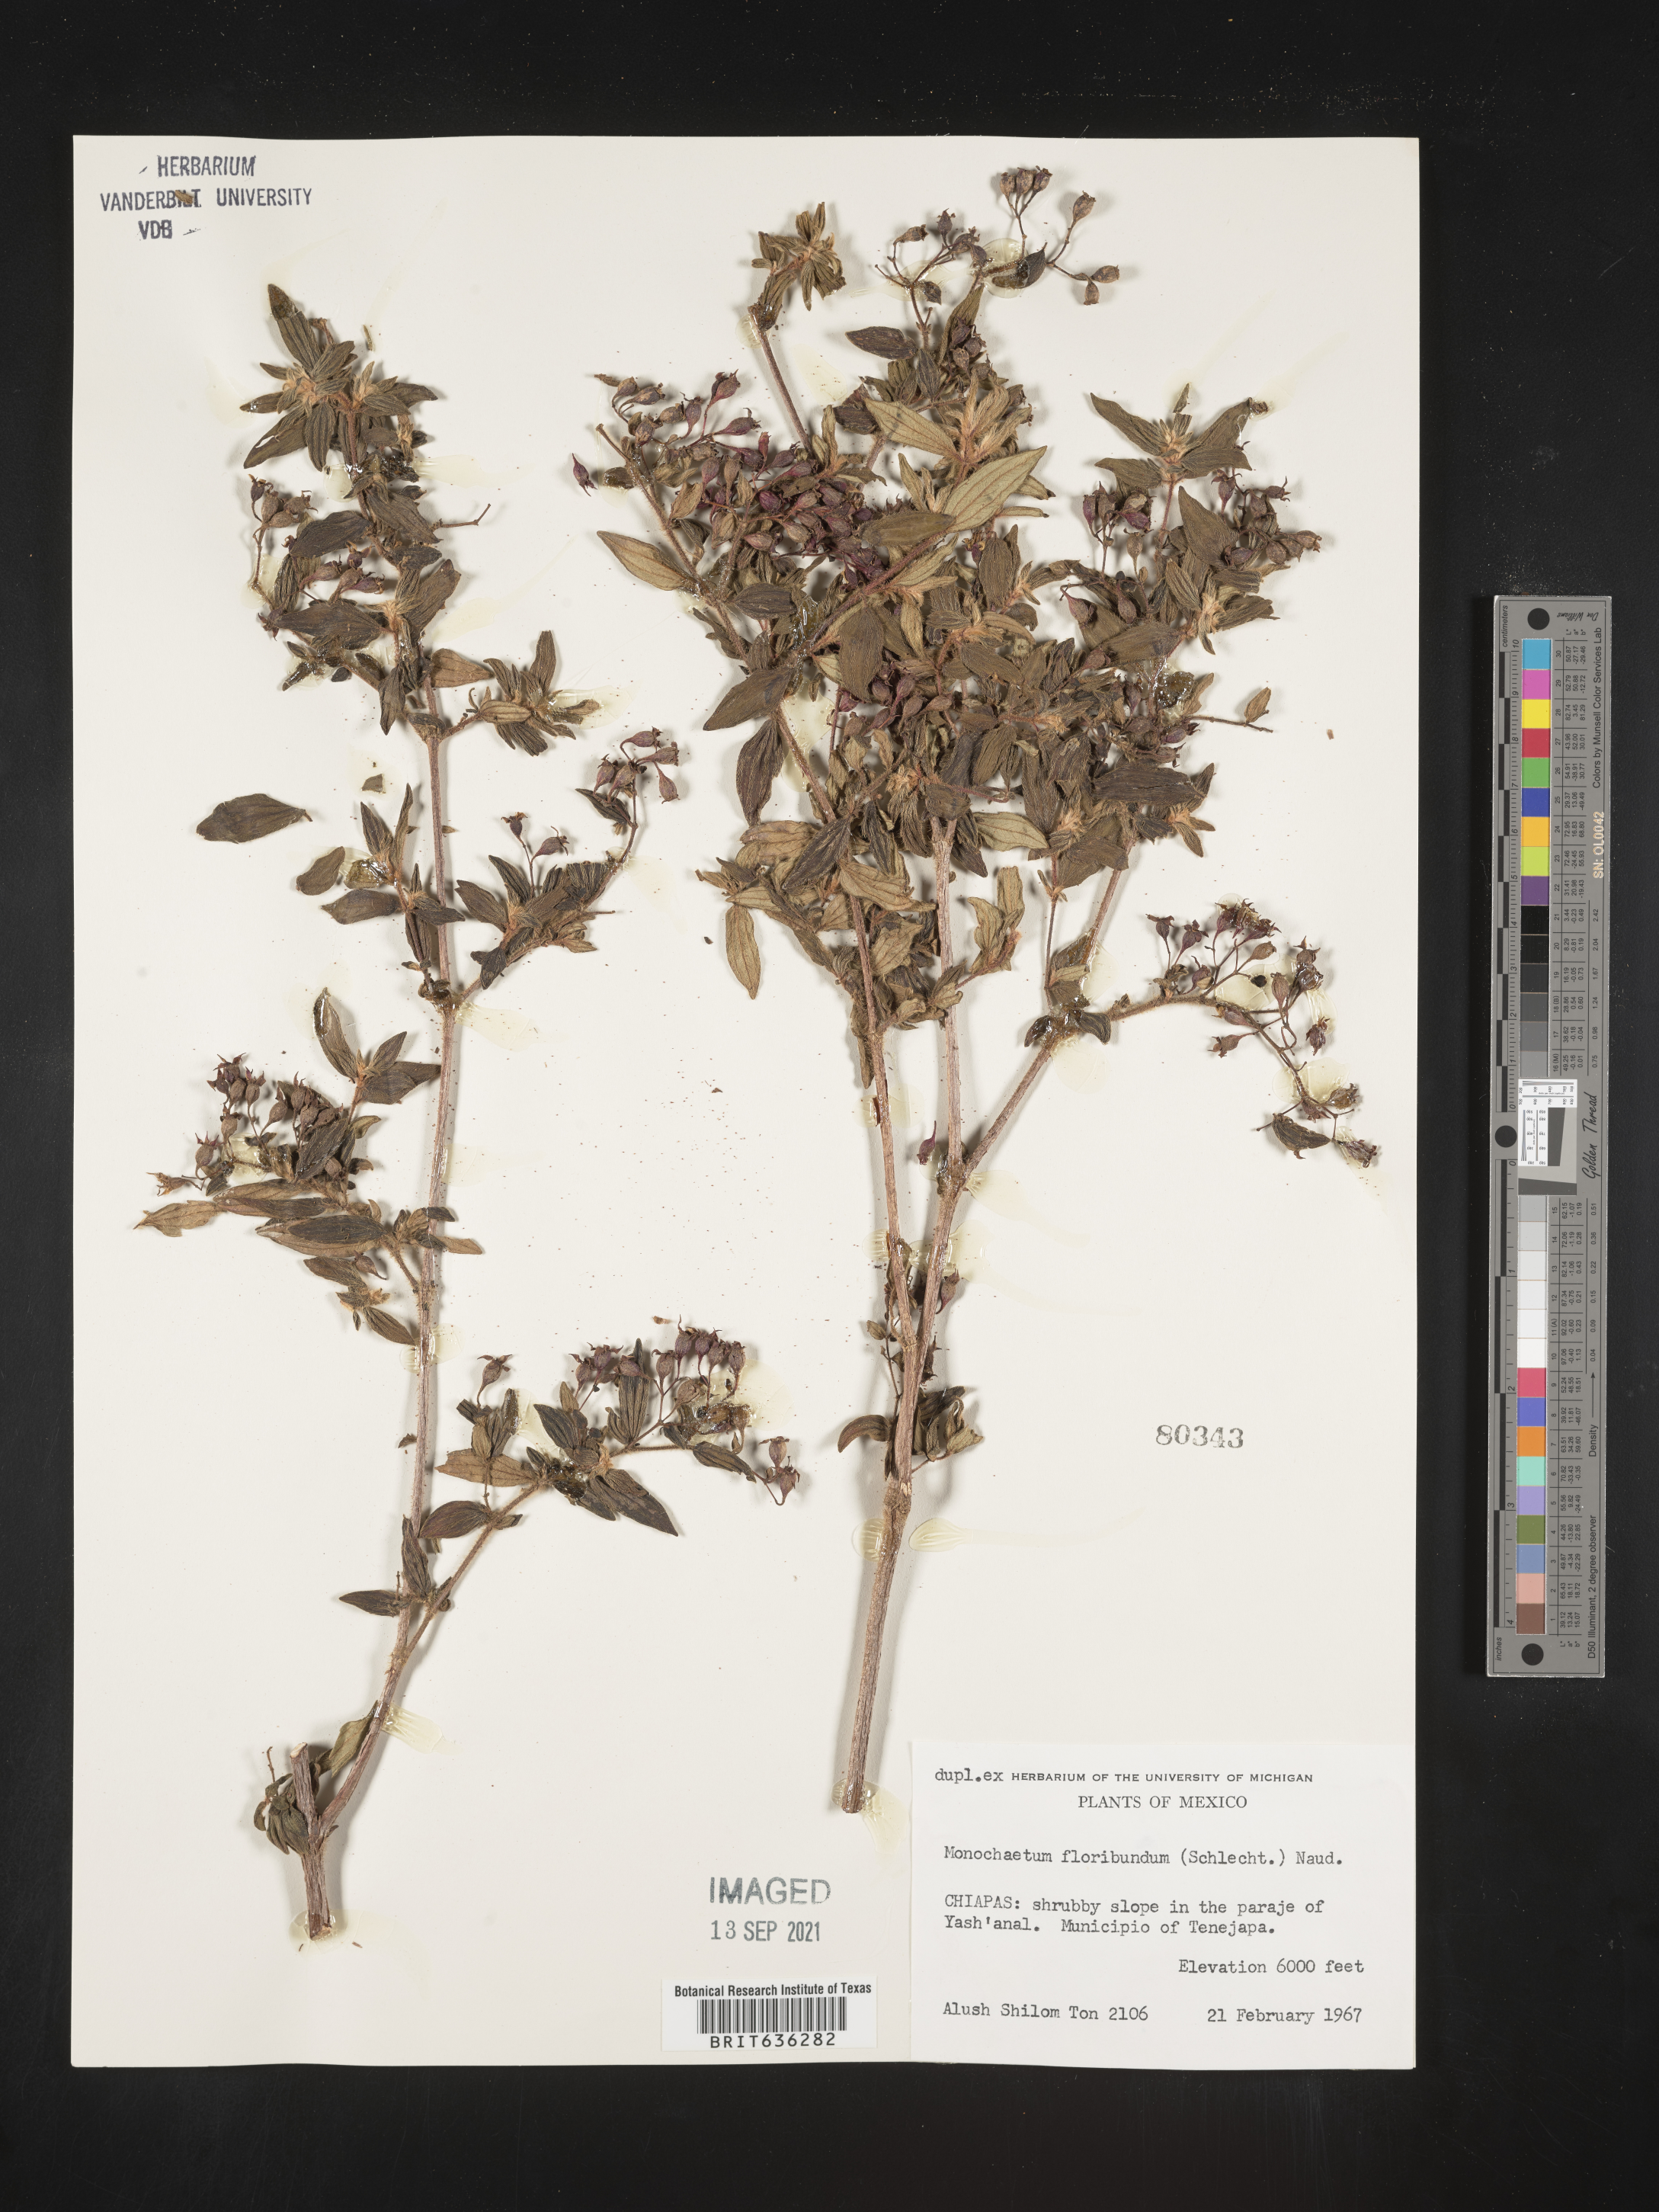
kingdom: Plantae
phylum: Tracheophyta
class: Magnoliopsida
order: Myrtales
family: Melastomataceae
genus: Monochaetum
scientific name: Monochaetum floribundum
